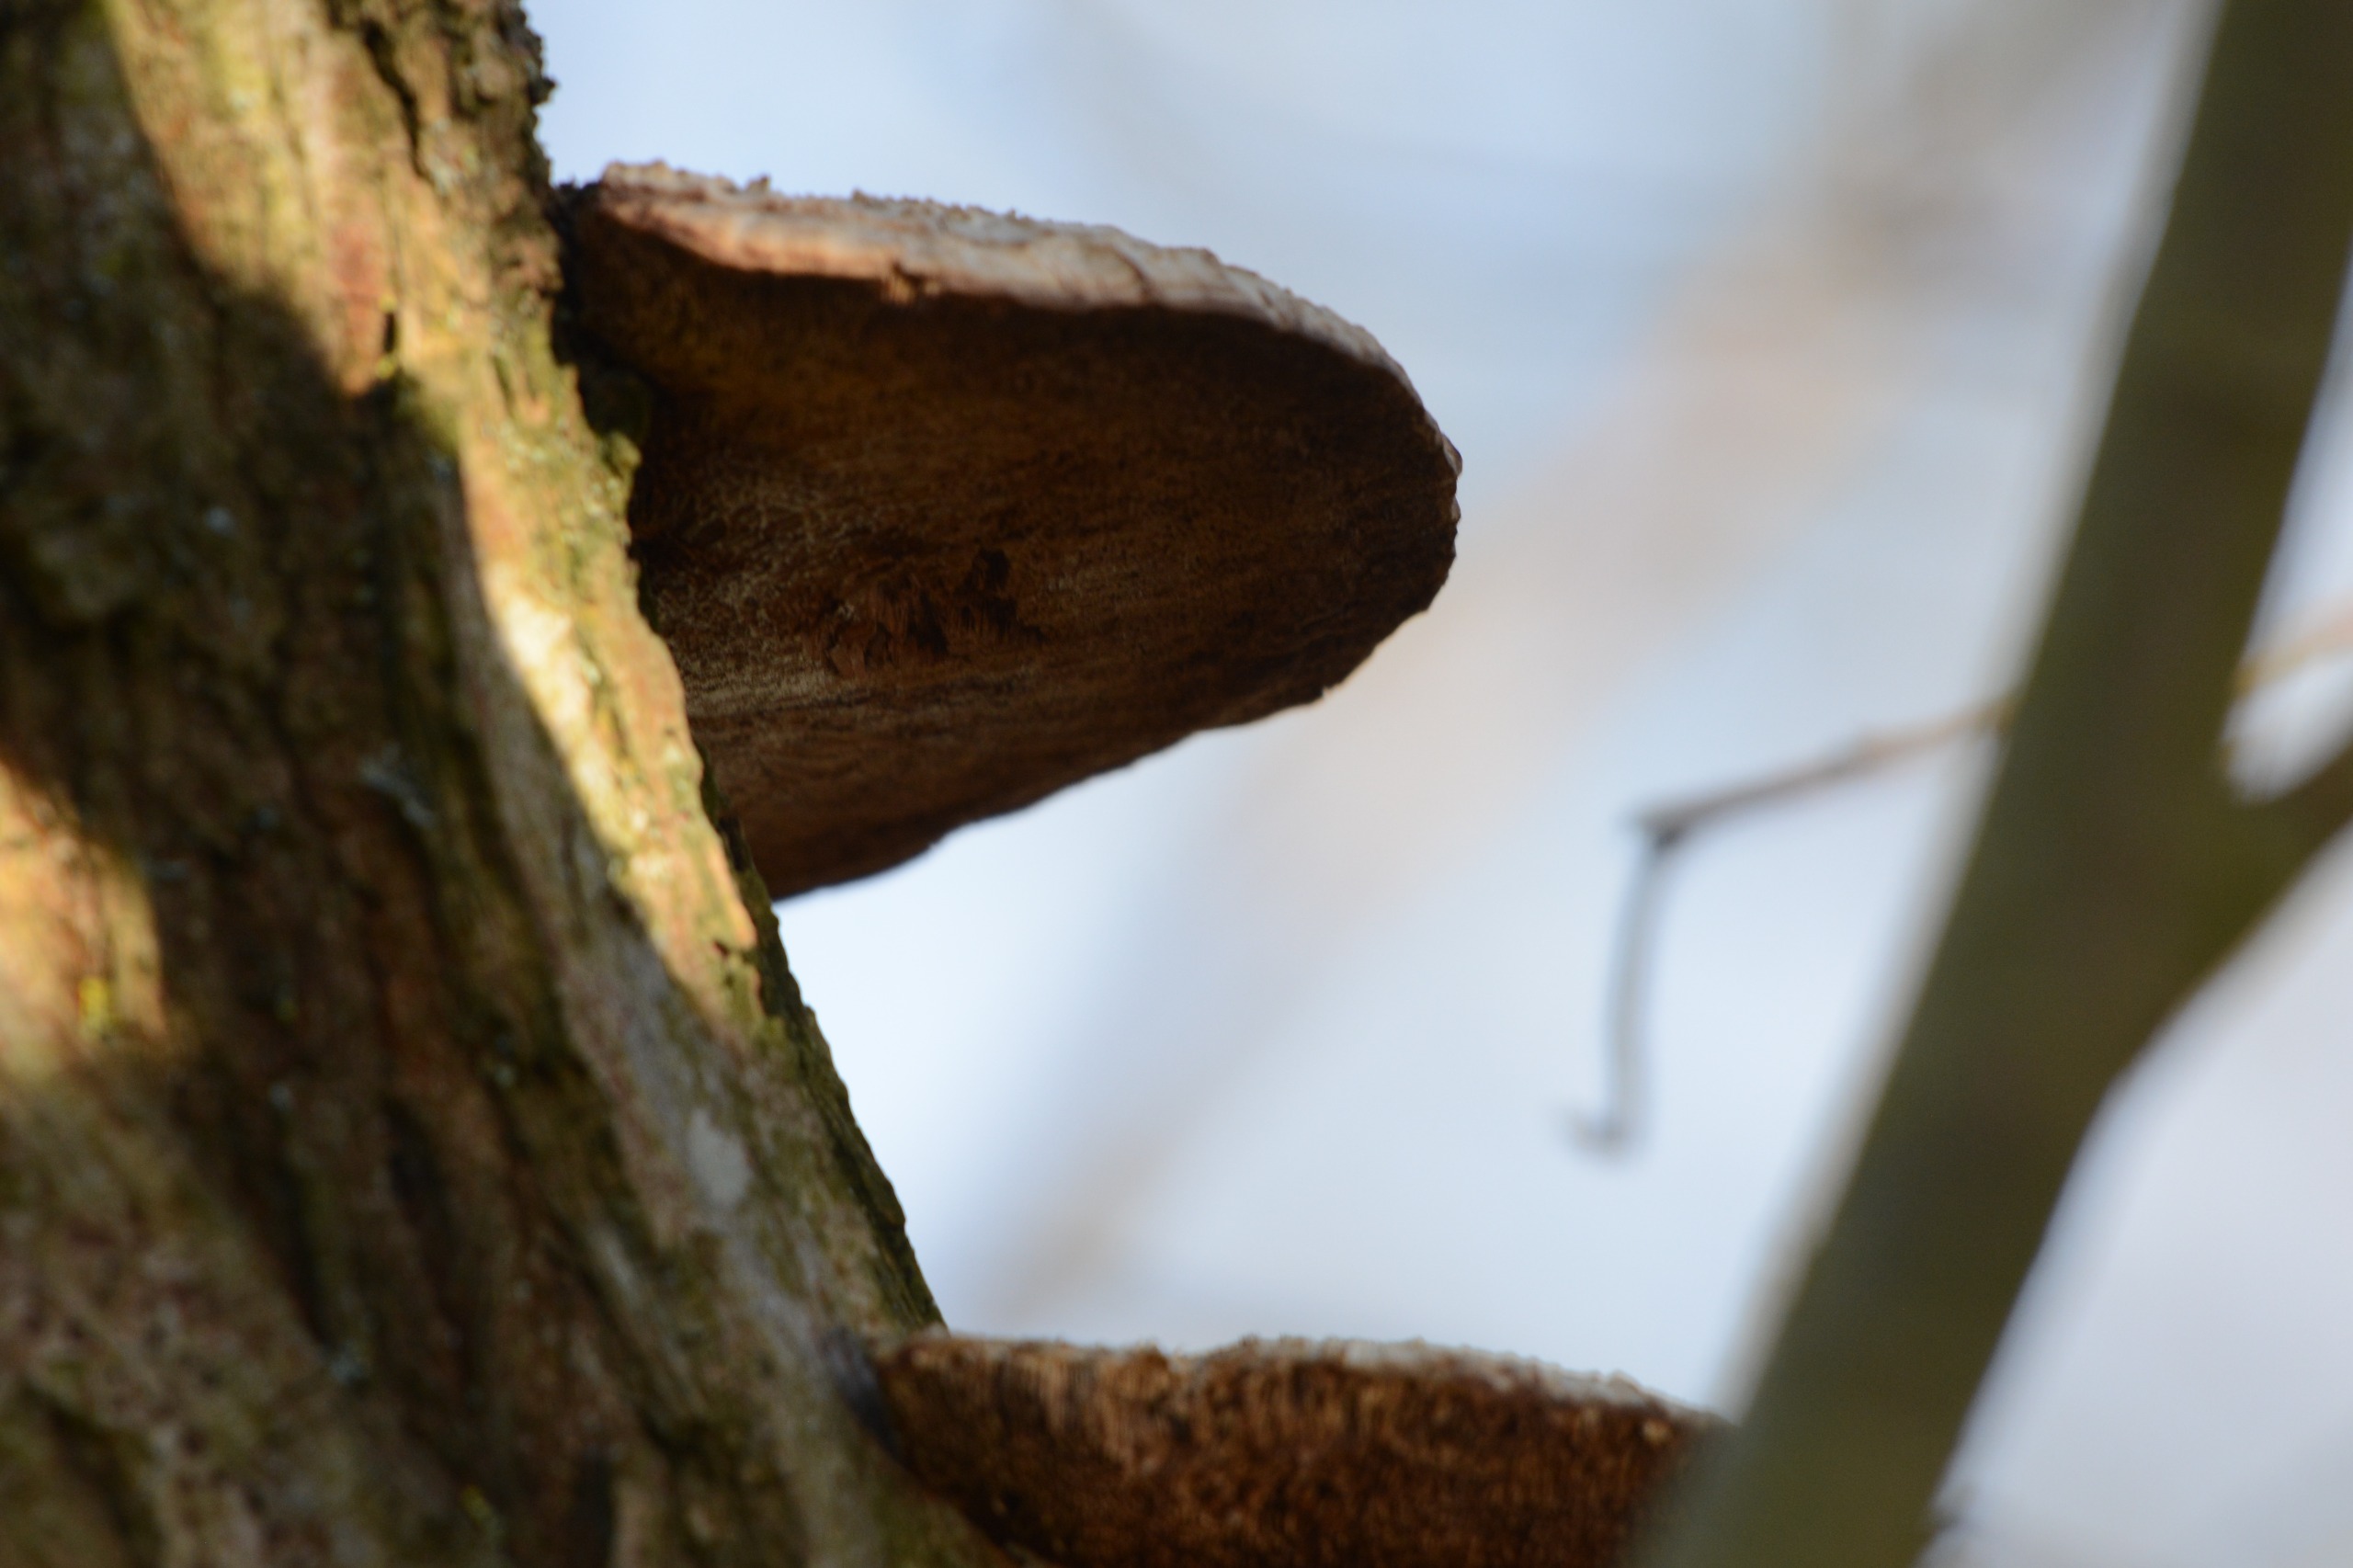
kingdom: Fungi
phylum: Basidiomycota
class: Agaricomycetes
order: Polyporales
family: Polyporaceae
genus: Daedaleopsis
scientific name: Daedaleopsis confragosa
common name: Rødmende læderporesvamp
